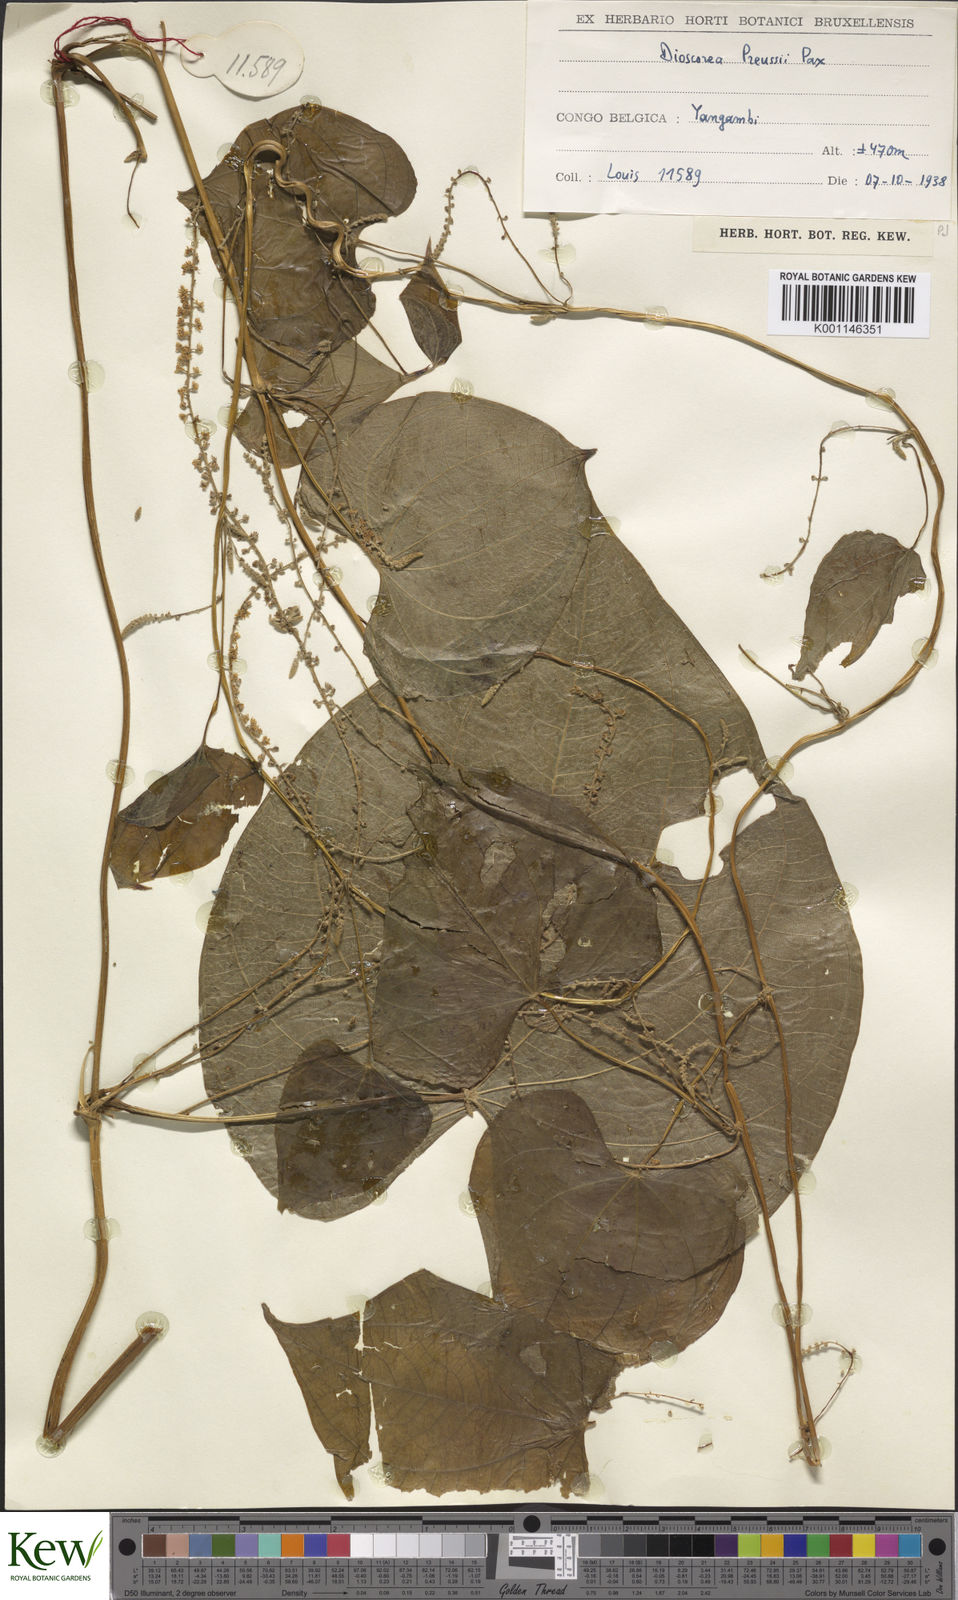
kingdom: Plantae
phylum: Tracheophyta
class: Liliopsida
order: Dioscoreales
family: Dioscoreaceae
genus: Dioscorea
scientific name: Dioscorea preussii
